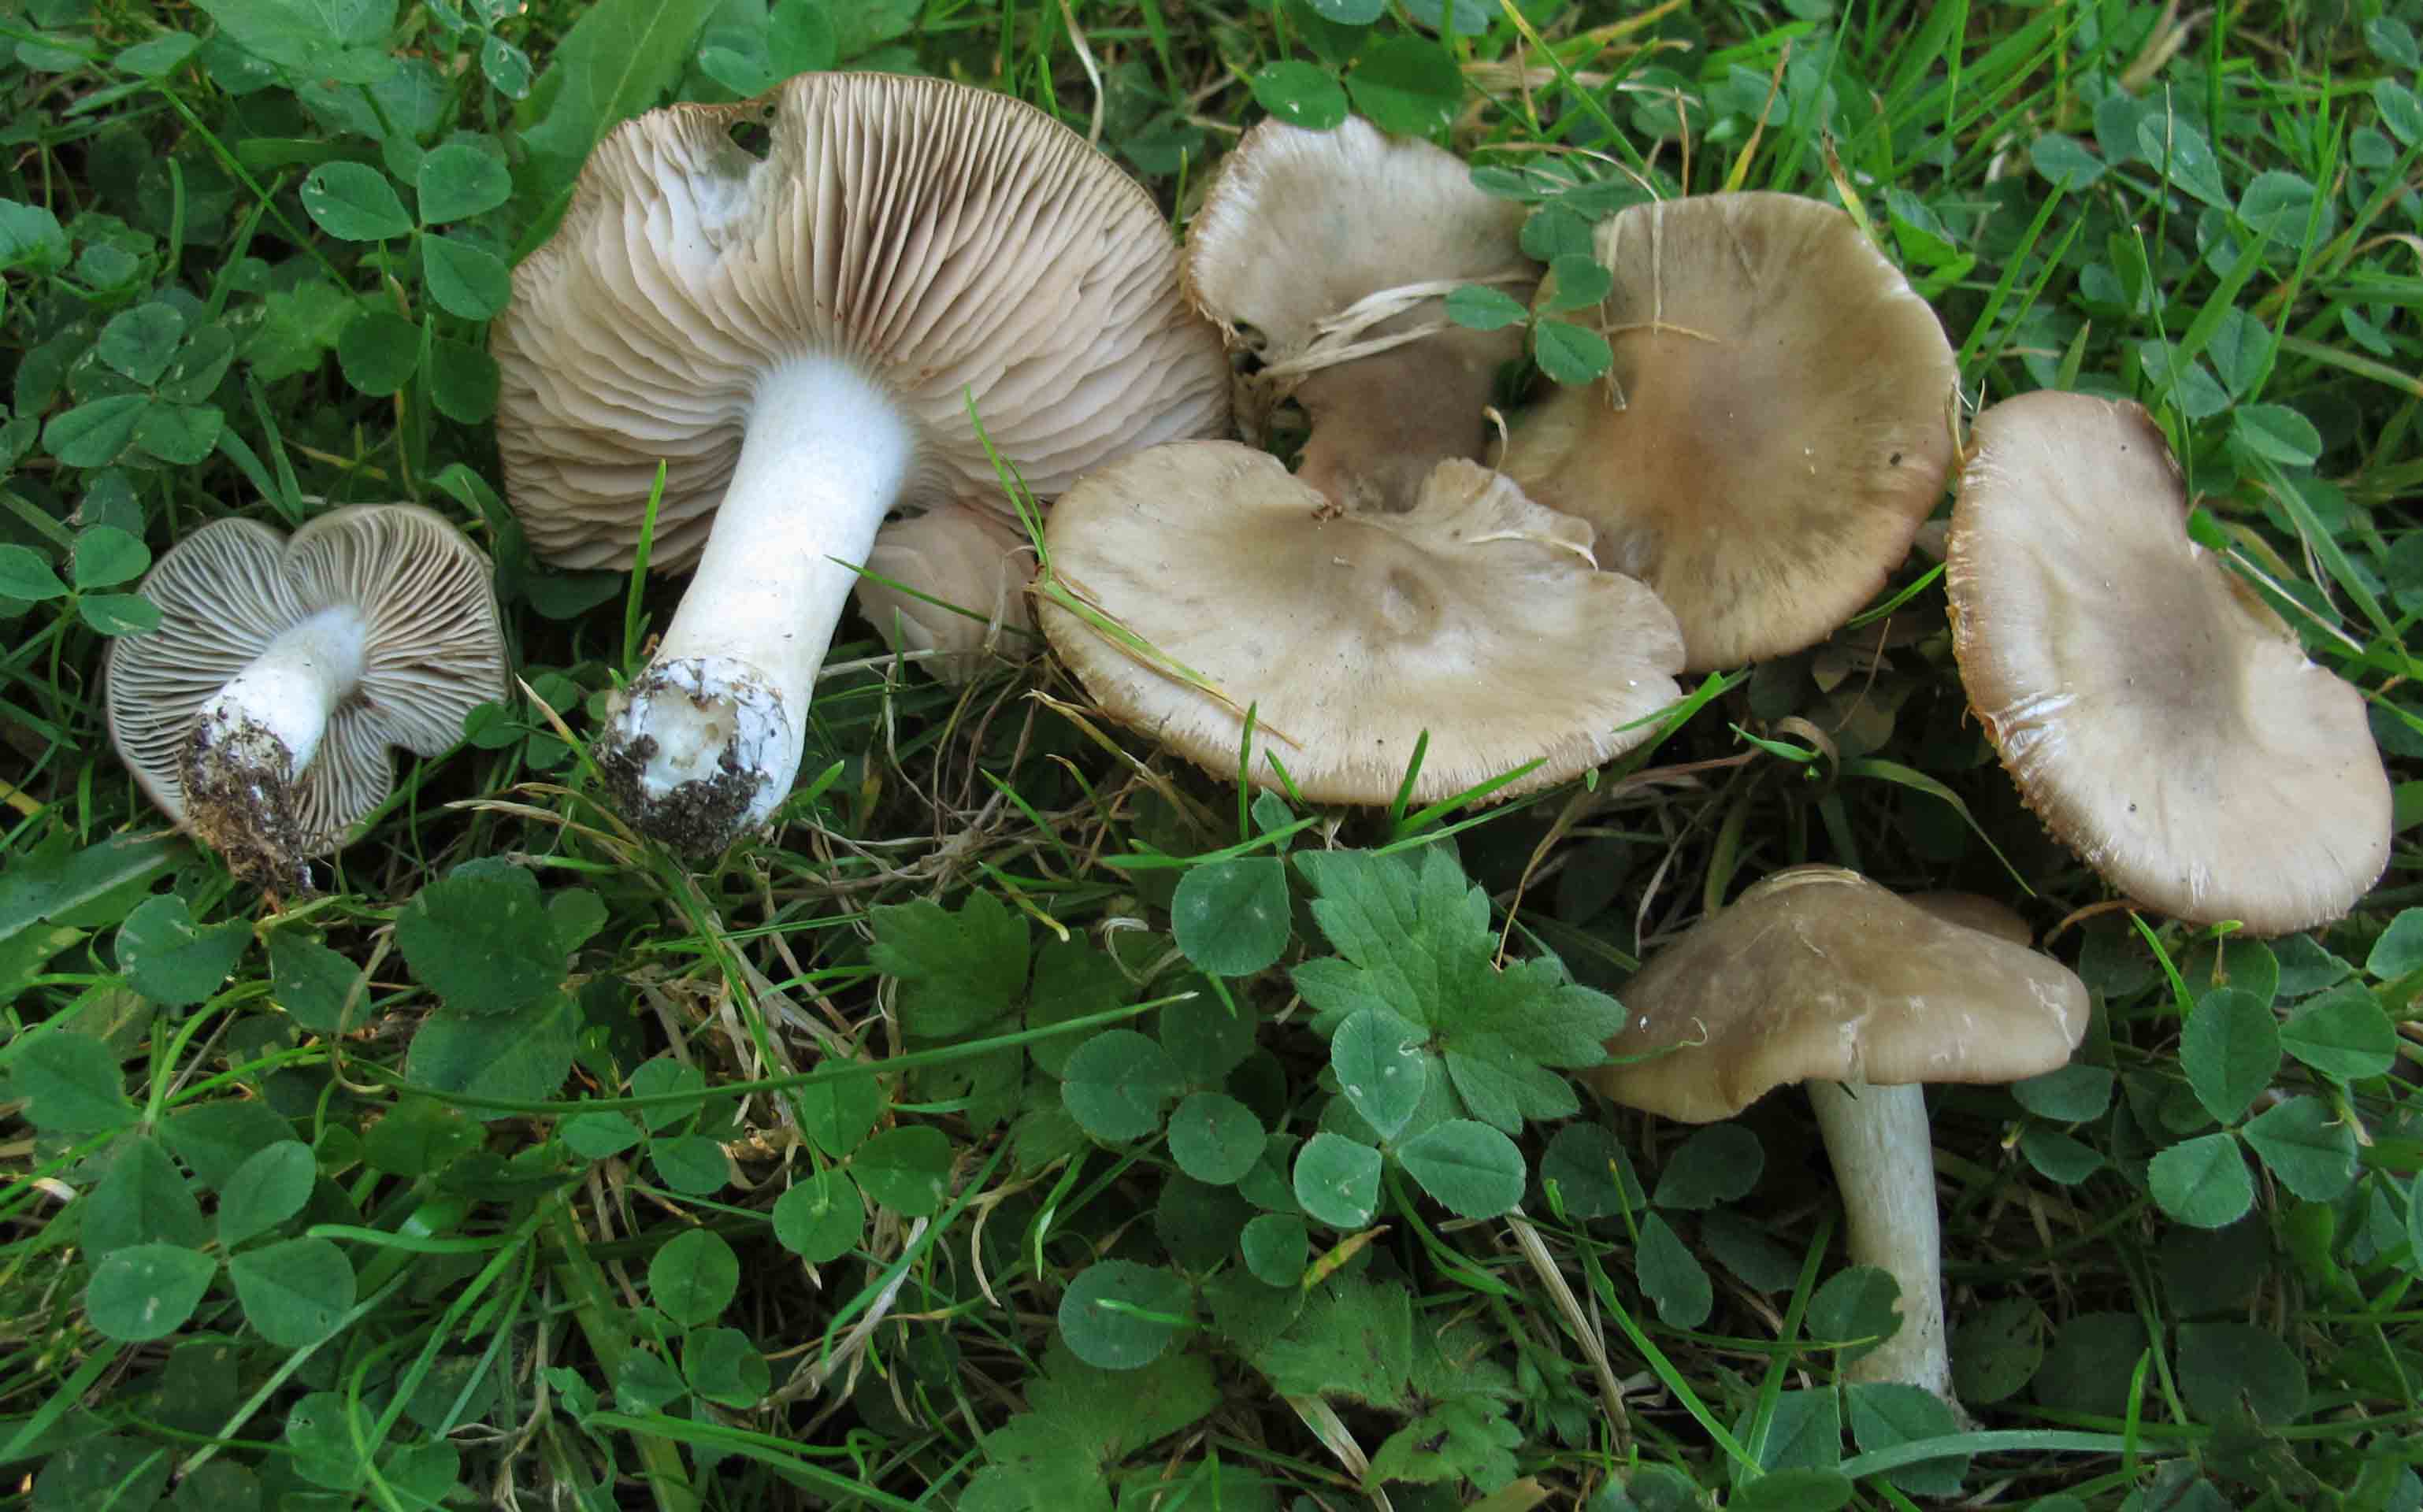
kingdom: Fungi
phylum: Basidiomycota
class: Agaricomycetes
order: Agaricales
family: Entolomataceae
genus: Entoloma
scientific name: Entoloma lividoalbum
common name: lysstokket rødblad
